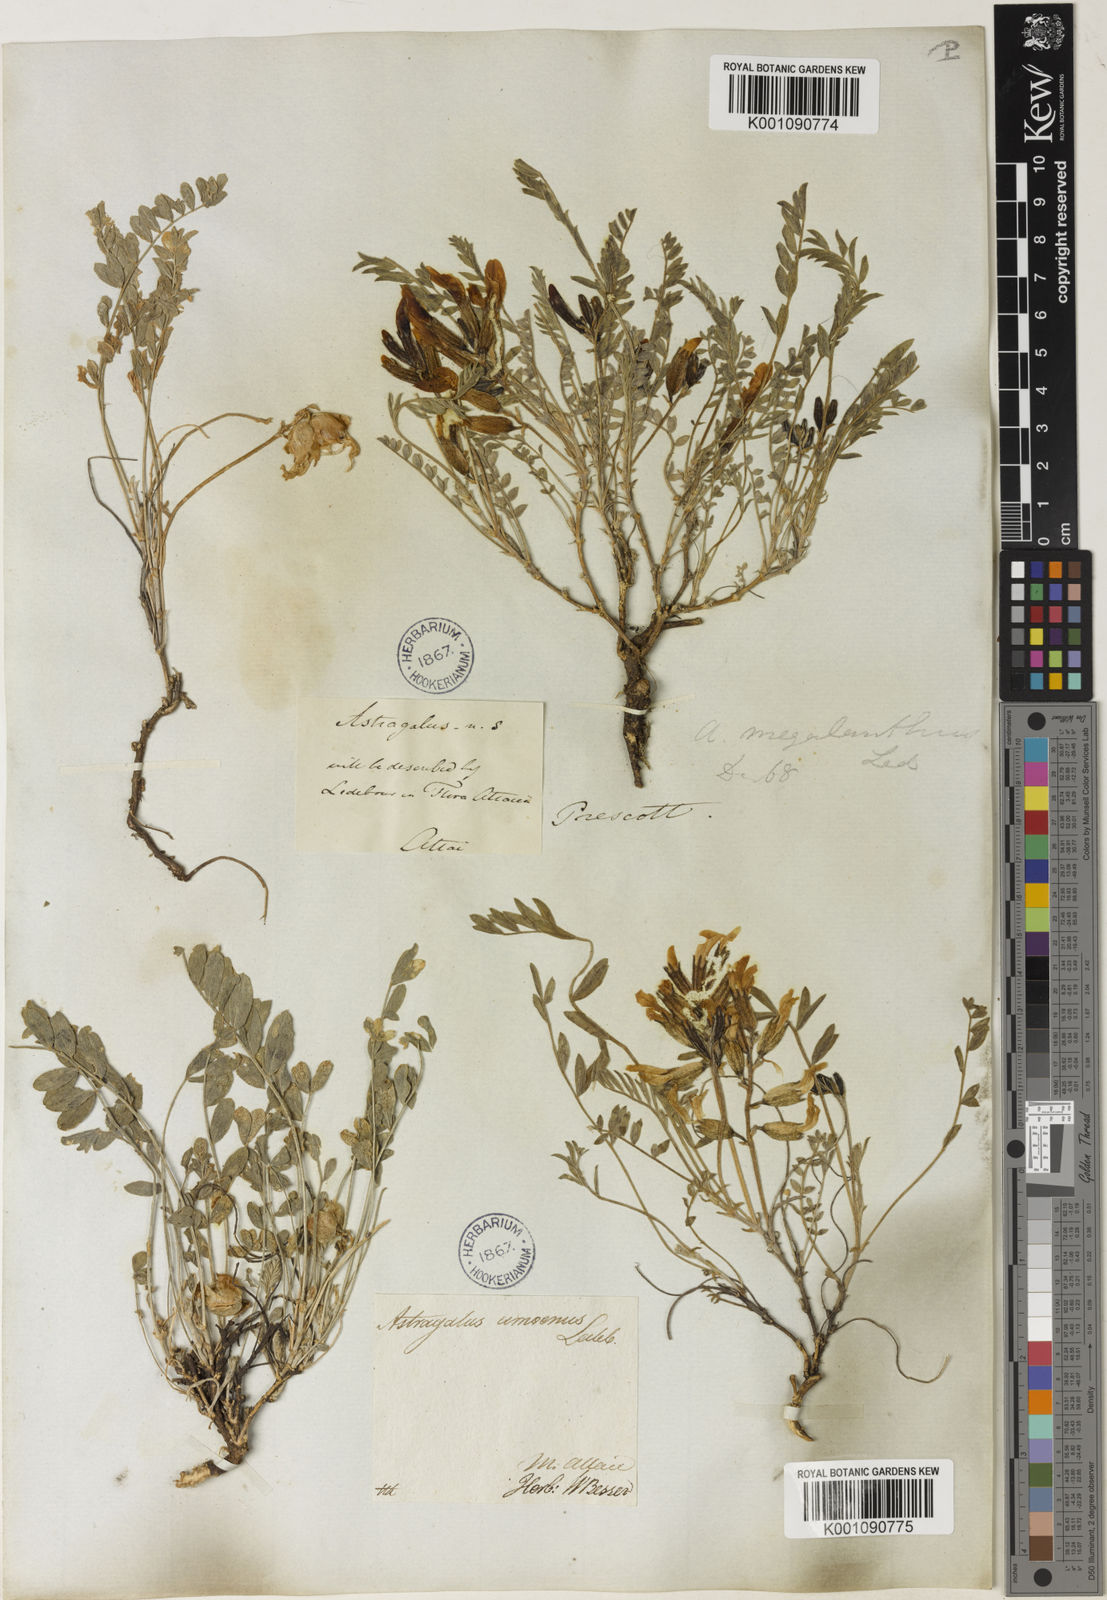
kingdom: Plantae
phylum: Tracheophyta
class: Magnoliopsida
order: Fabales
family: Fabaceae
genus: Astragalus
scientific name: Astragalus
